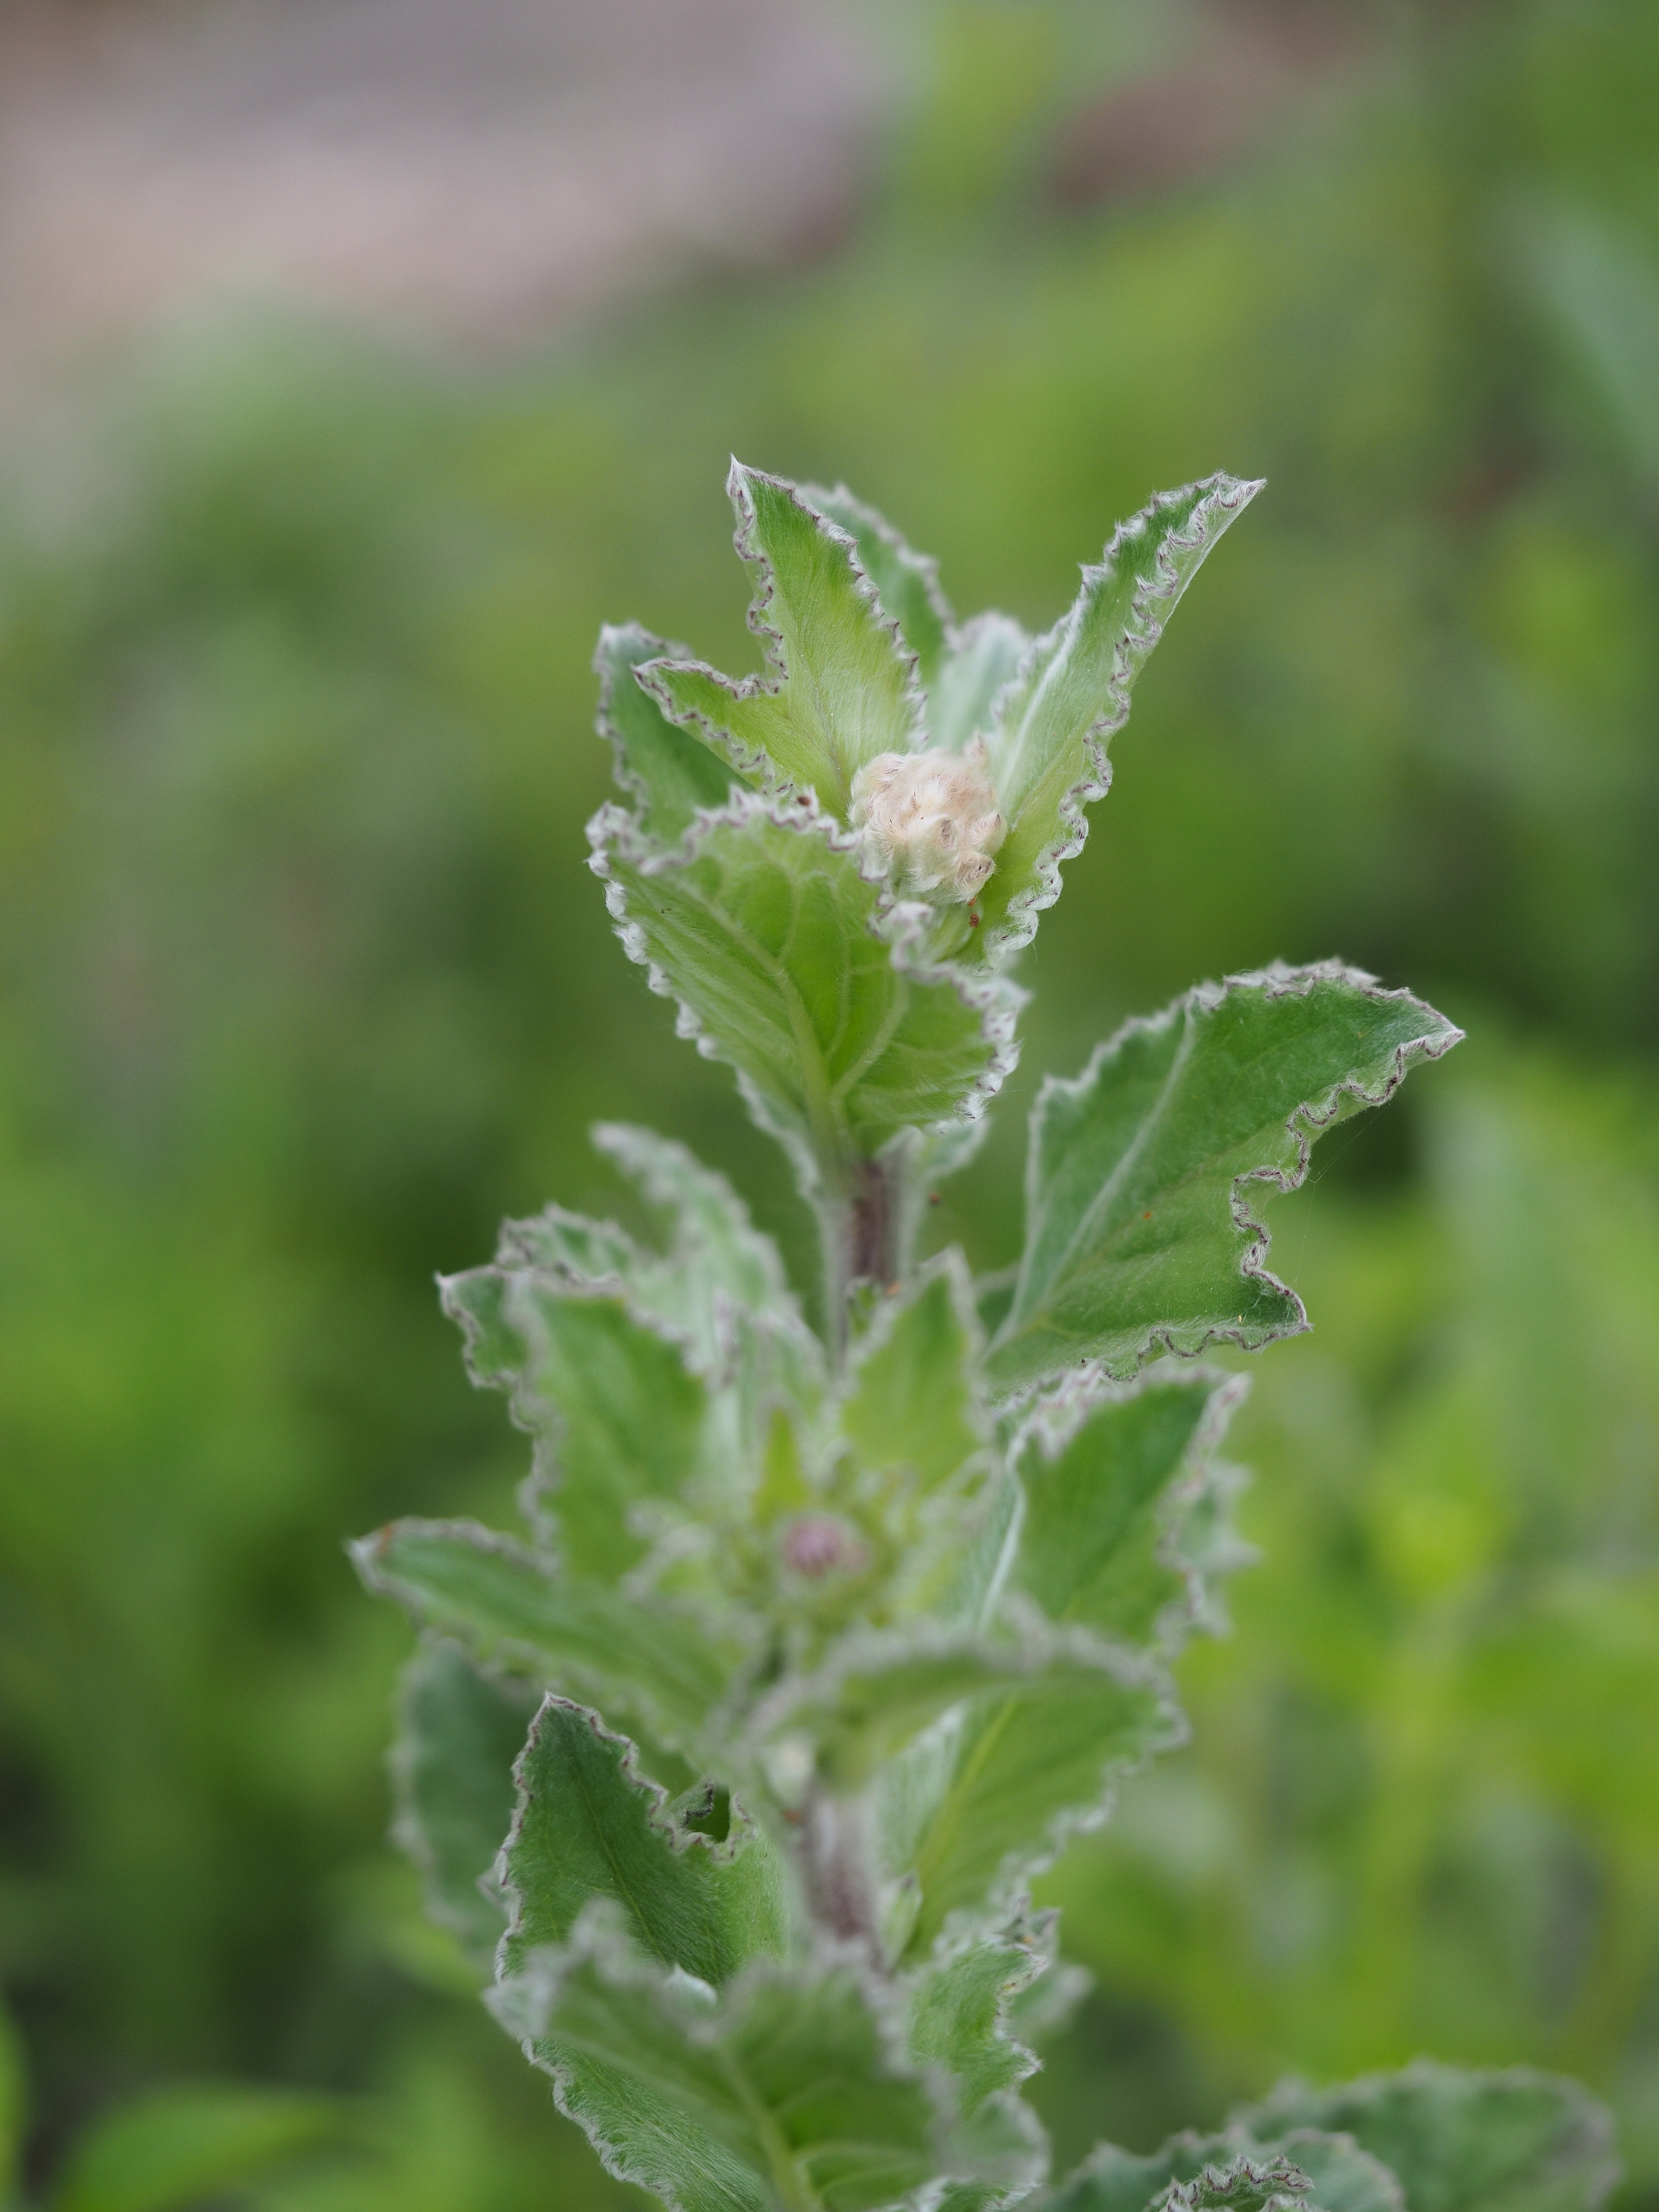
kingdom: Plantae
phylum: Tracheophyta
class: Magnoliopsida
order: Asterales
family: Asteraceae
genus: Blumea
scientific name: Blumea hieraciifolia
